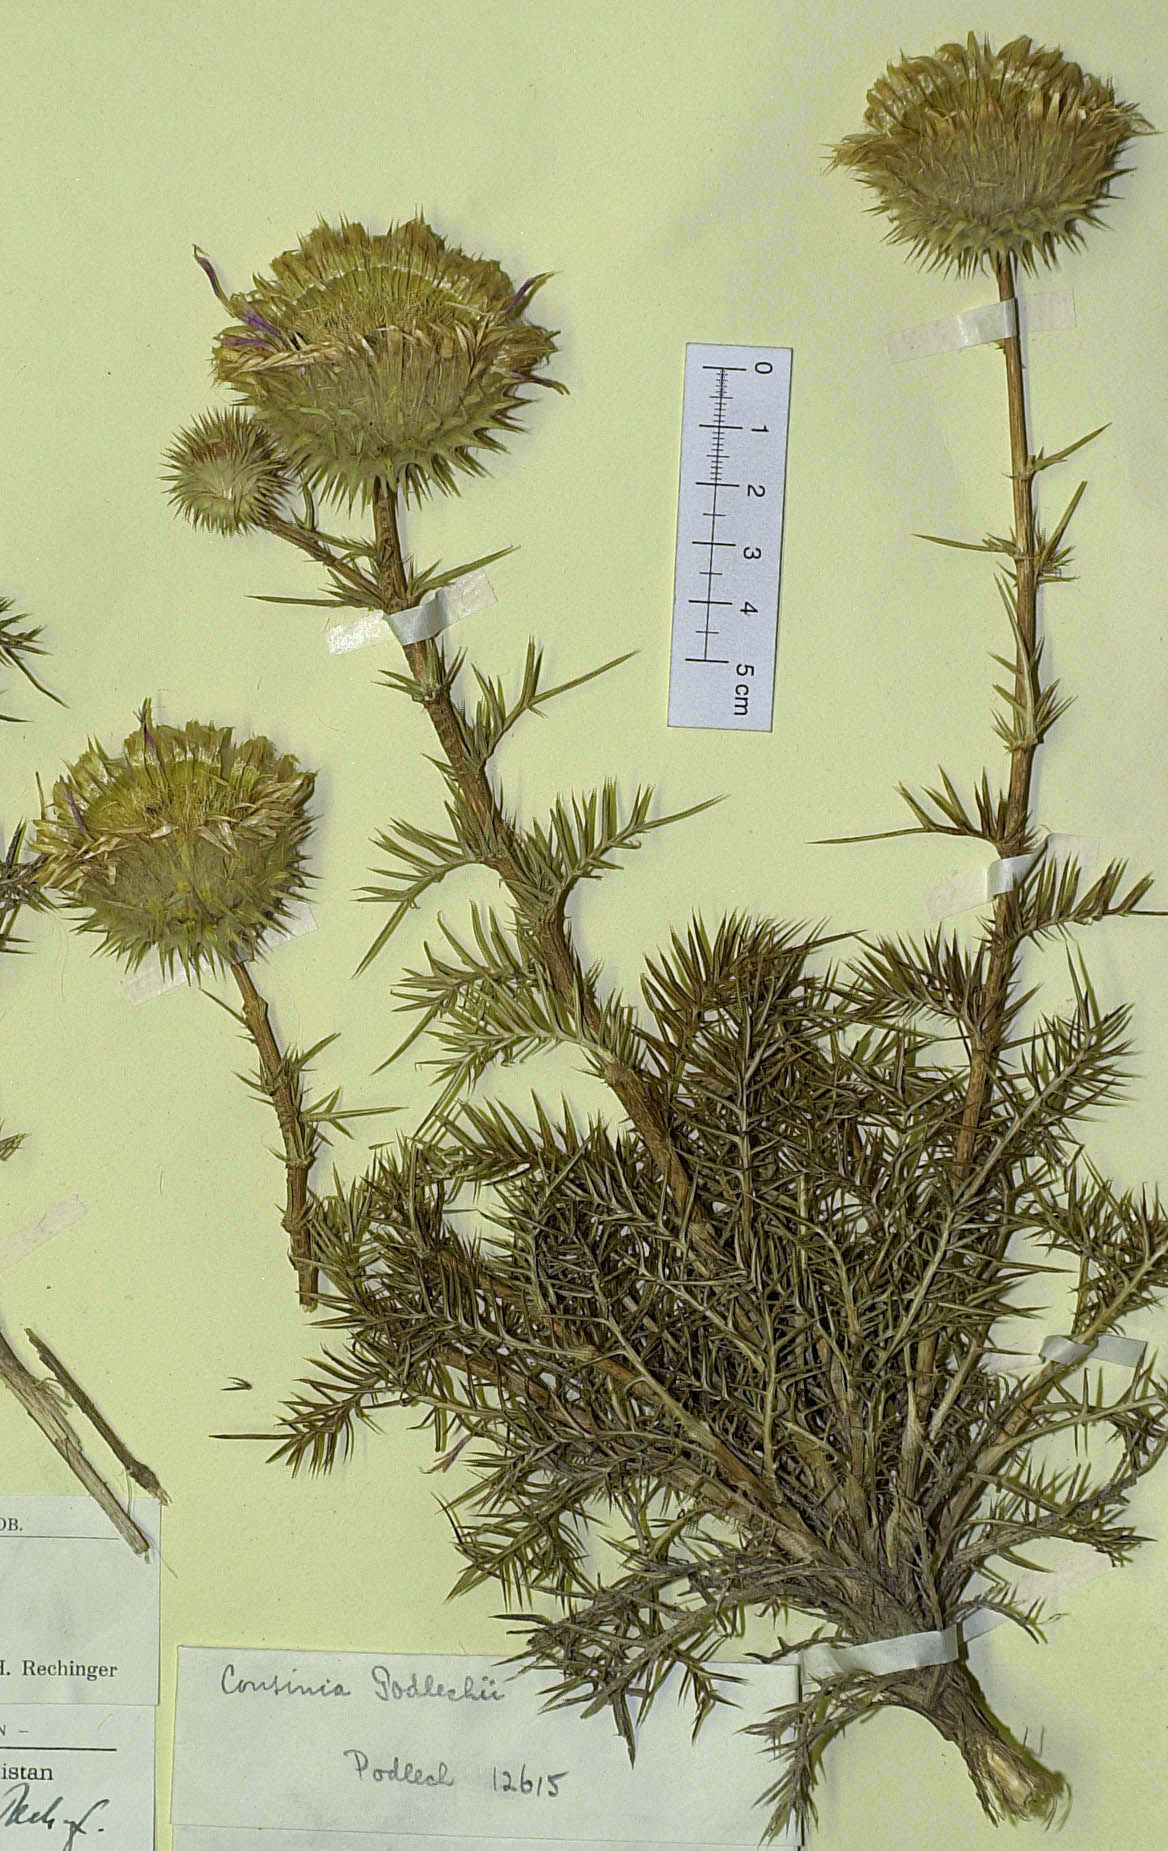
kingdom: Plantae
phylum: Tracheophyta
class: Magnoliopsida
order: Asterales
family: Asteraceae
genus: Cousinia
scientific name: Cousinia podlechii
